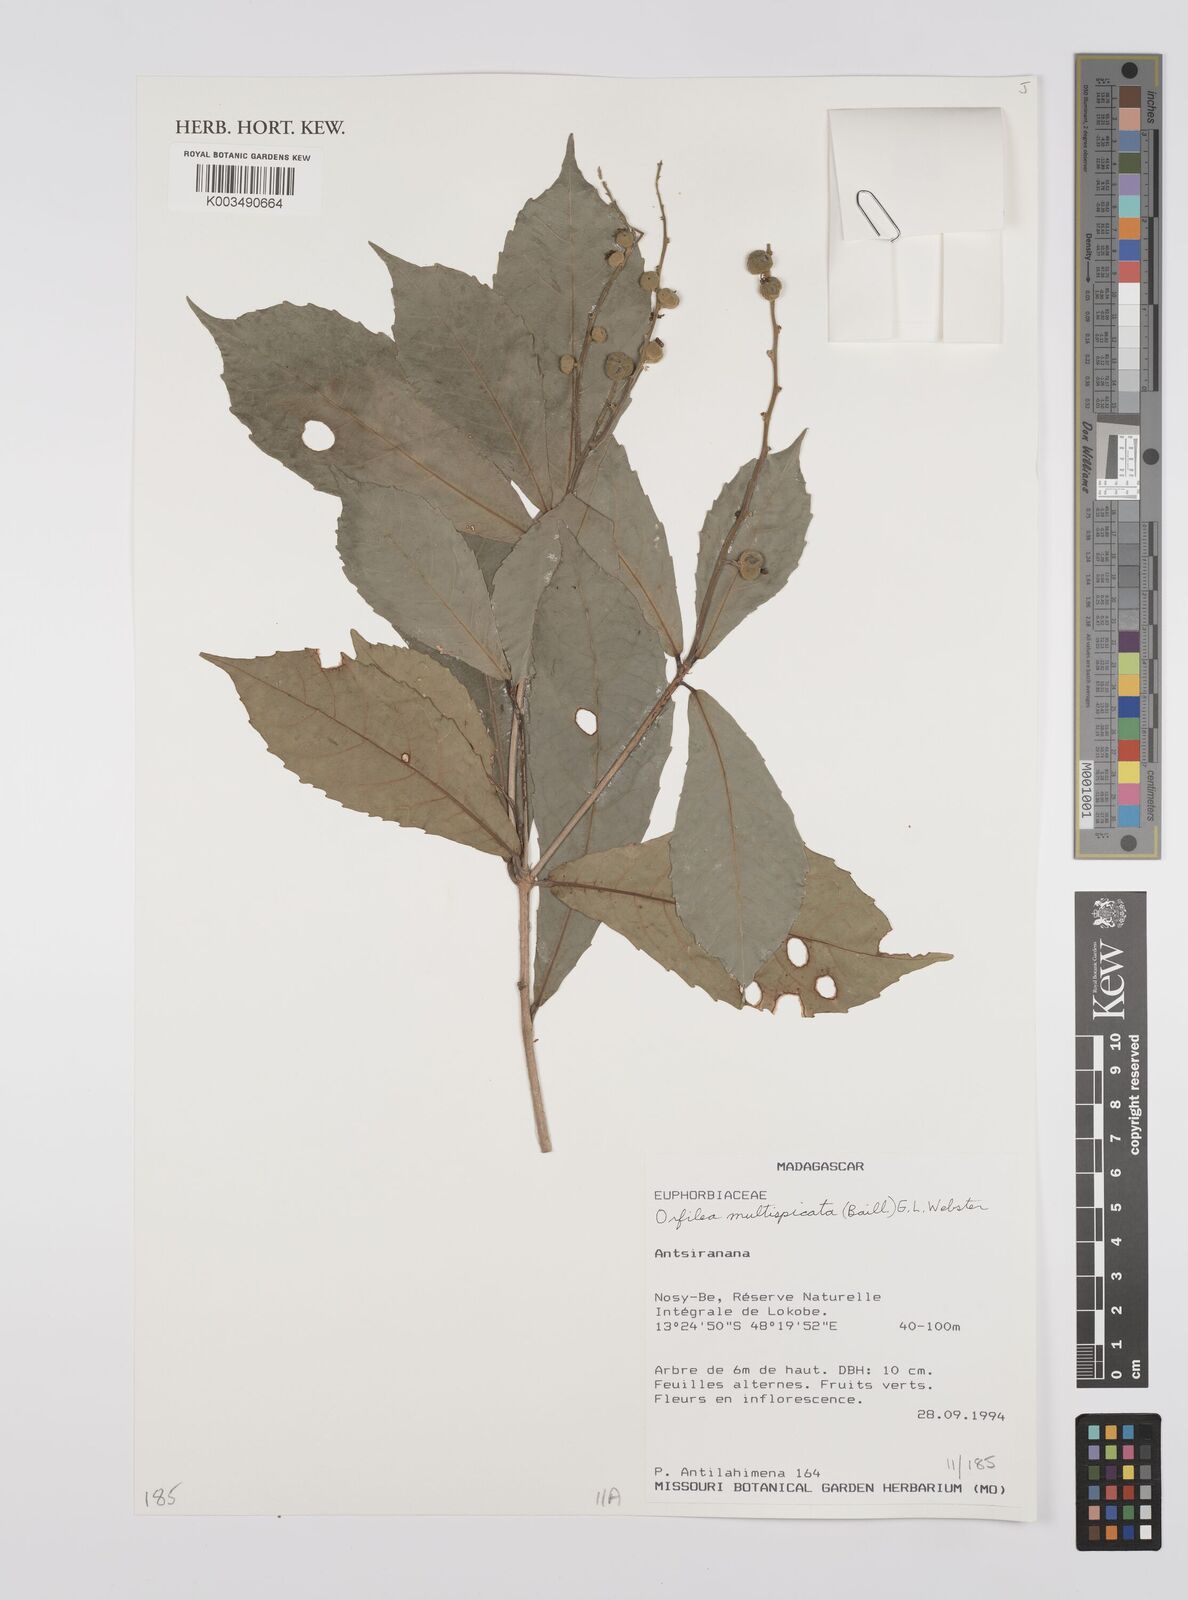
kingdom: Plantae
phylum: Tracheophyta
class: Magnoliopsida
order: Malpighiales
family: Euphorbiaceae
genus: Orfilea
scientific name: Orfilea multispicata
